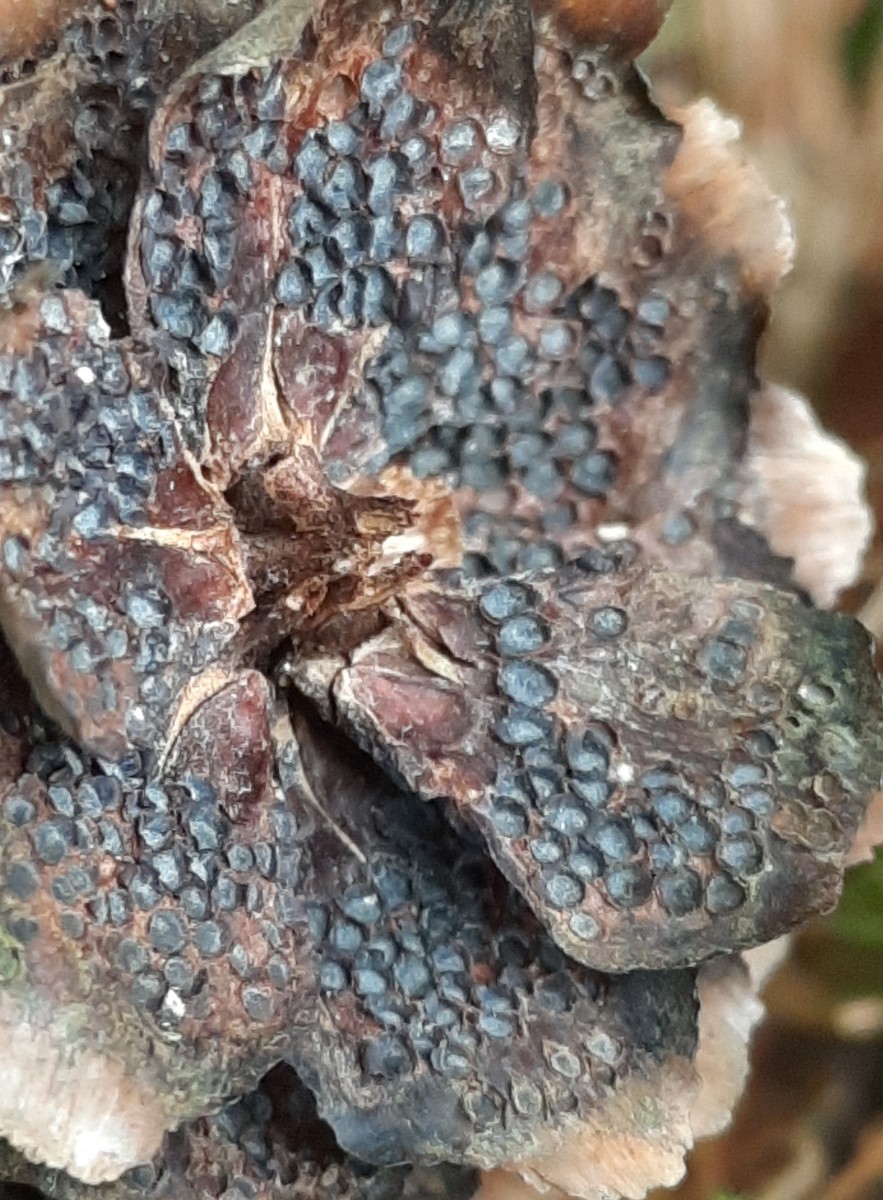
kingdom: Fungi
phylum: Basidiomycota
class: Pucciniomycetes
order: Pucciniales
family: Pucciniastraceae
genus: Thekopsora
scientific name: Thekopsora areolata
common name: grankogle-nålerust
